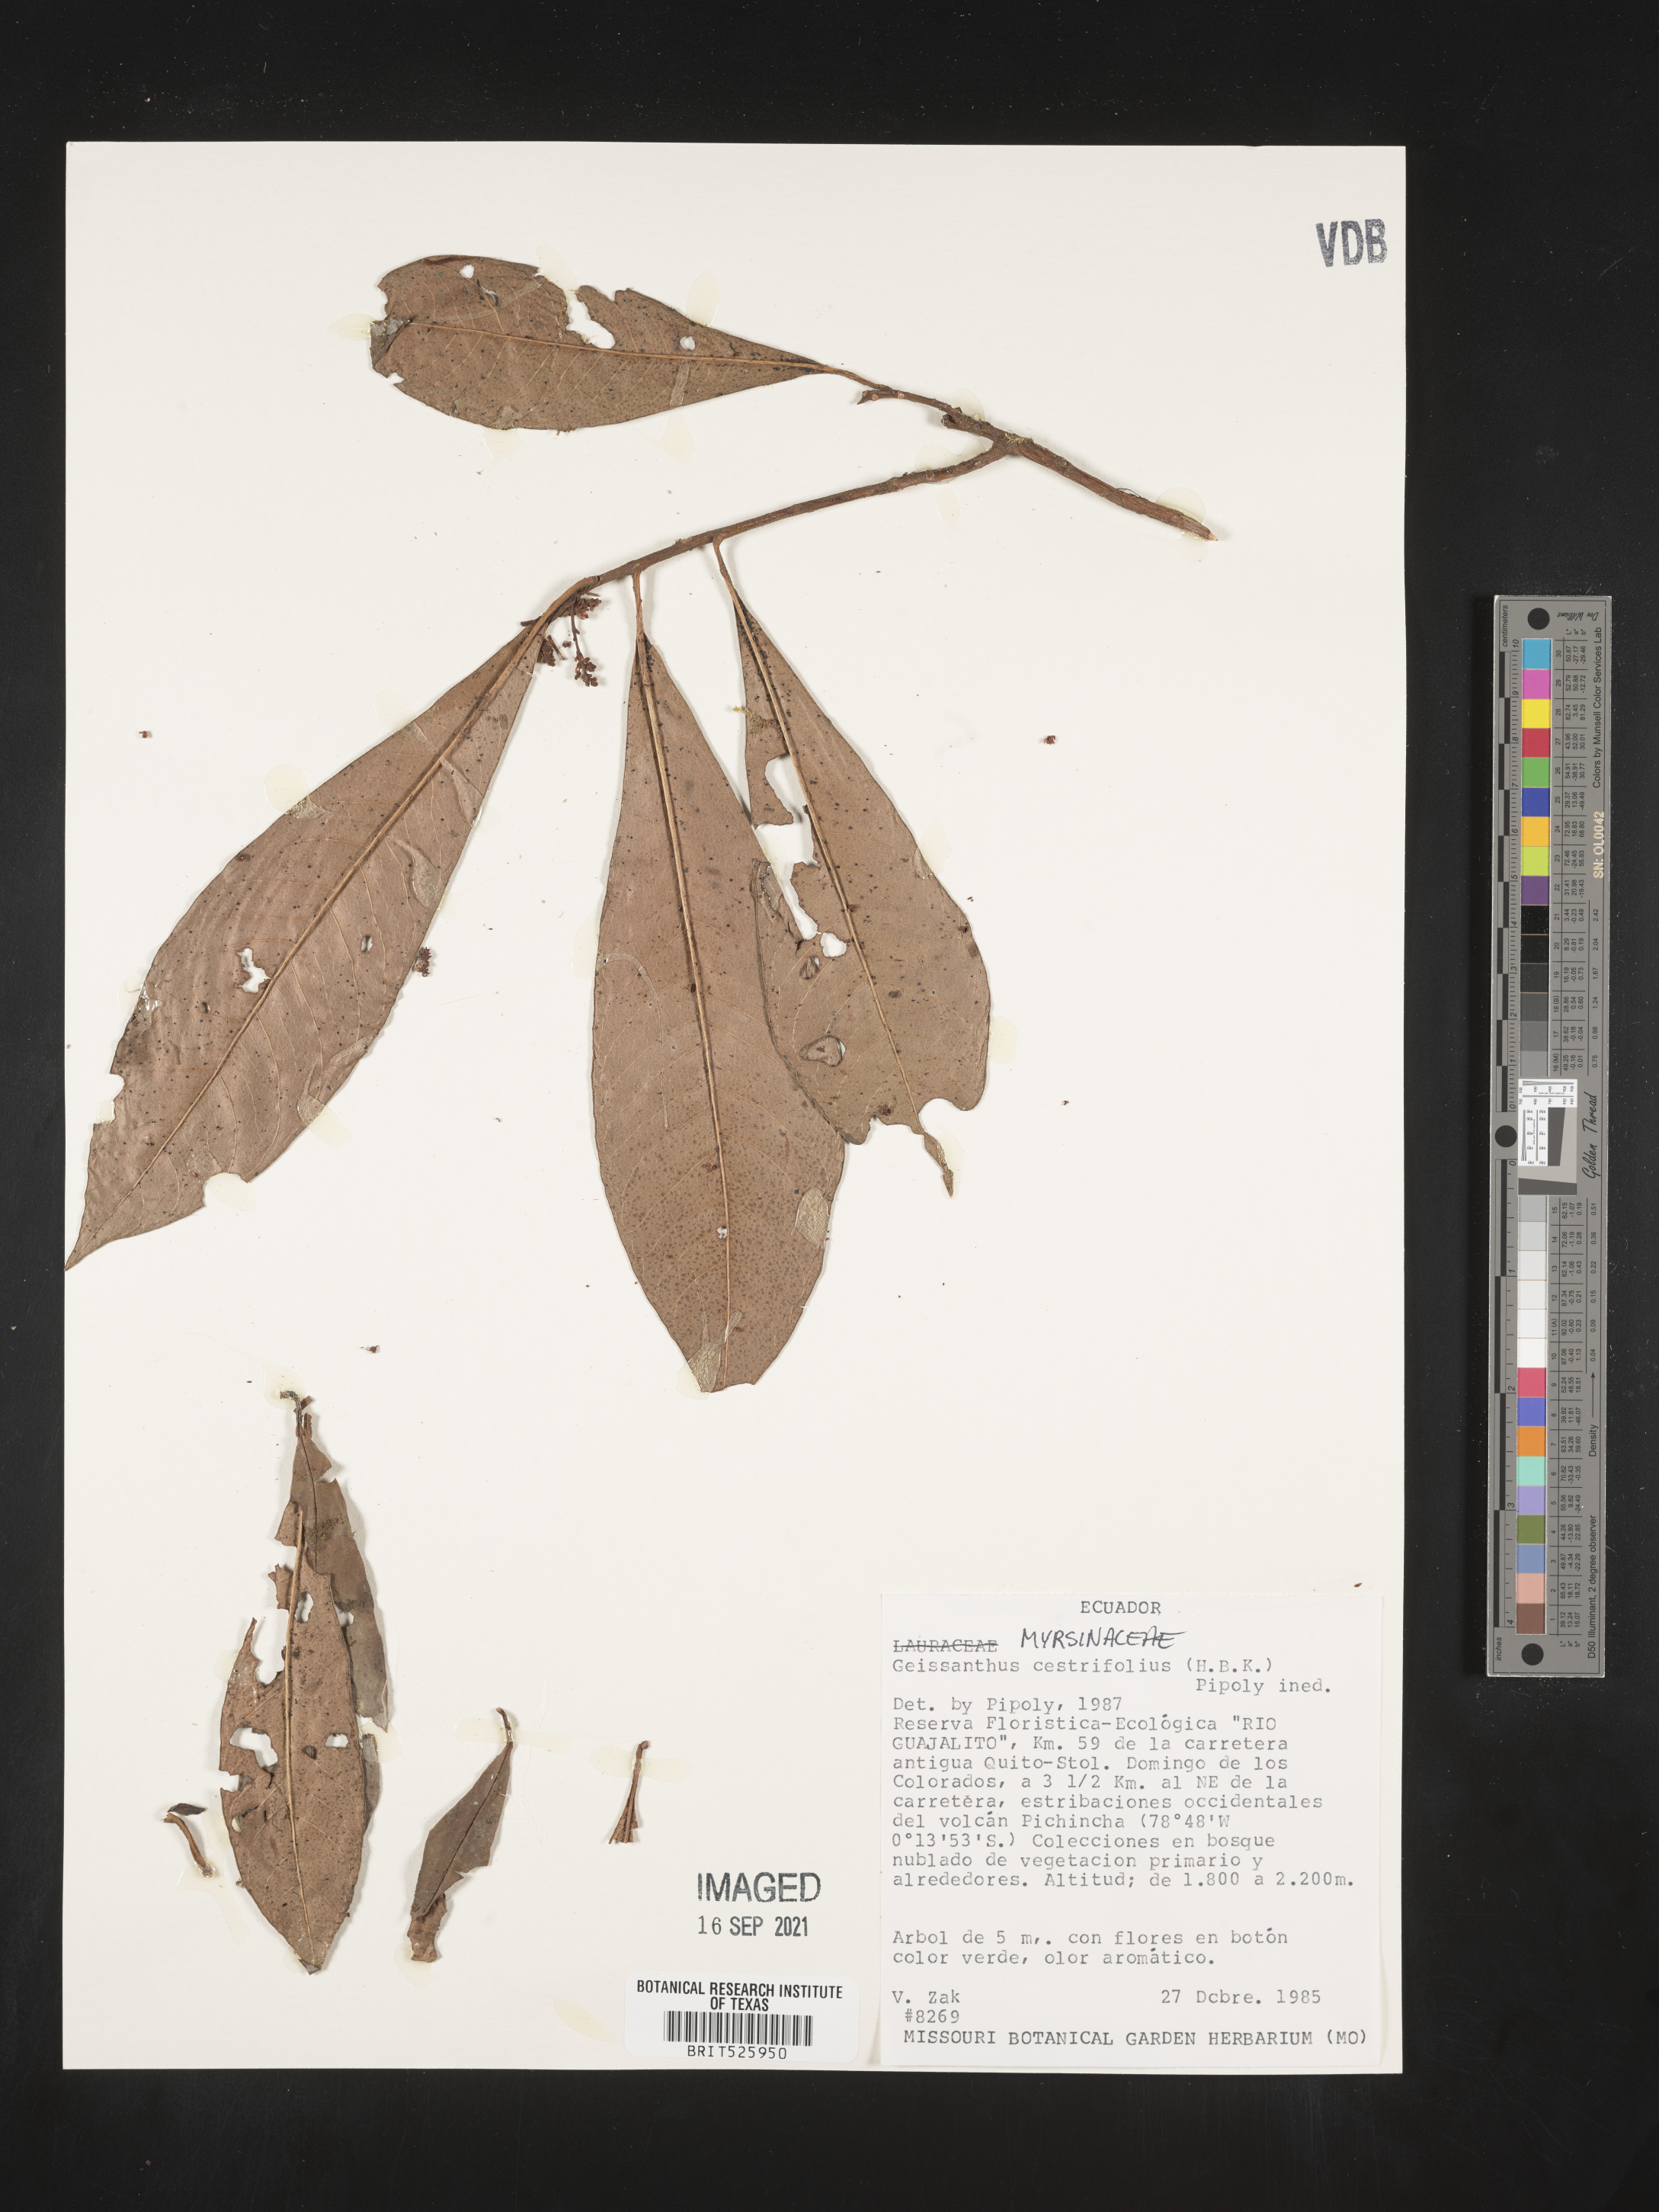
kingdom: Plantae
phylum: Tracheophyta
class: Magnoliopsida
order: Ericales
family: Primulaceae
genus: Geissanthus
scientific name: Geissanthus
